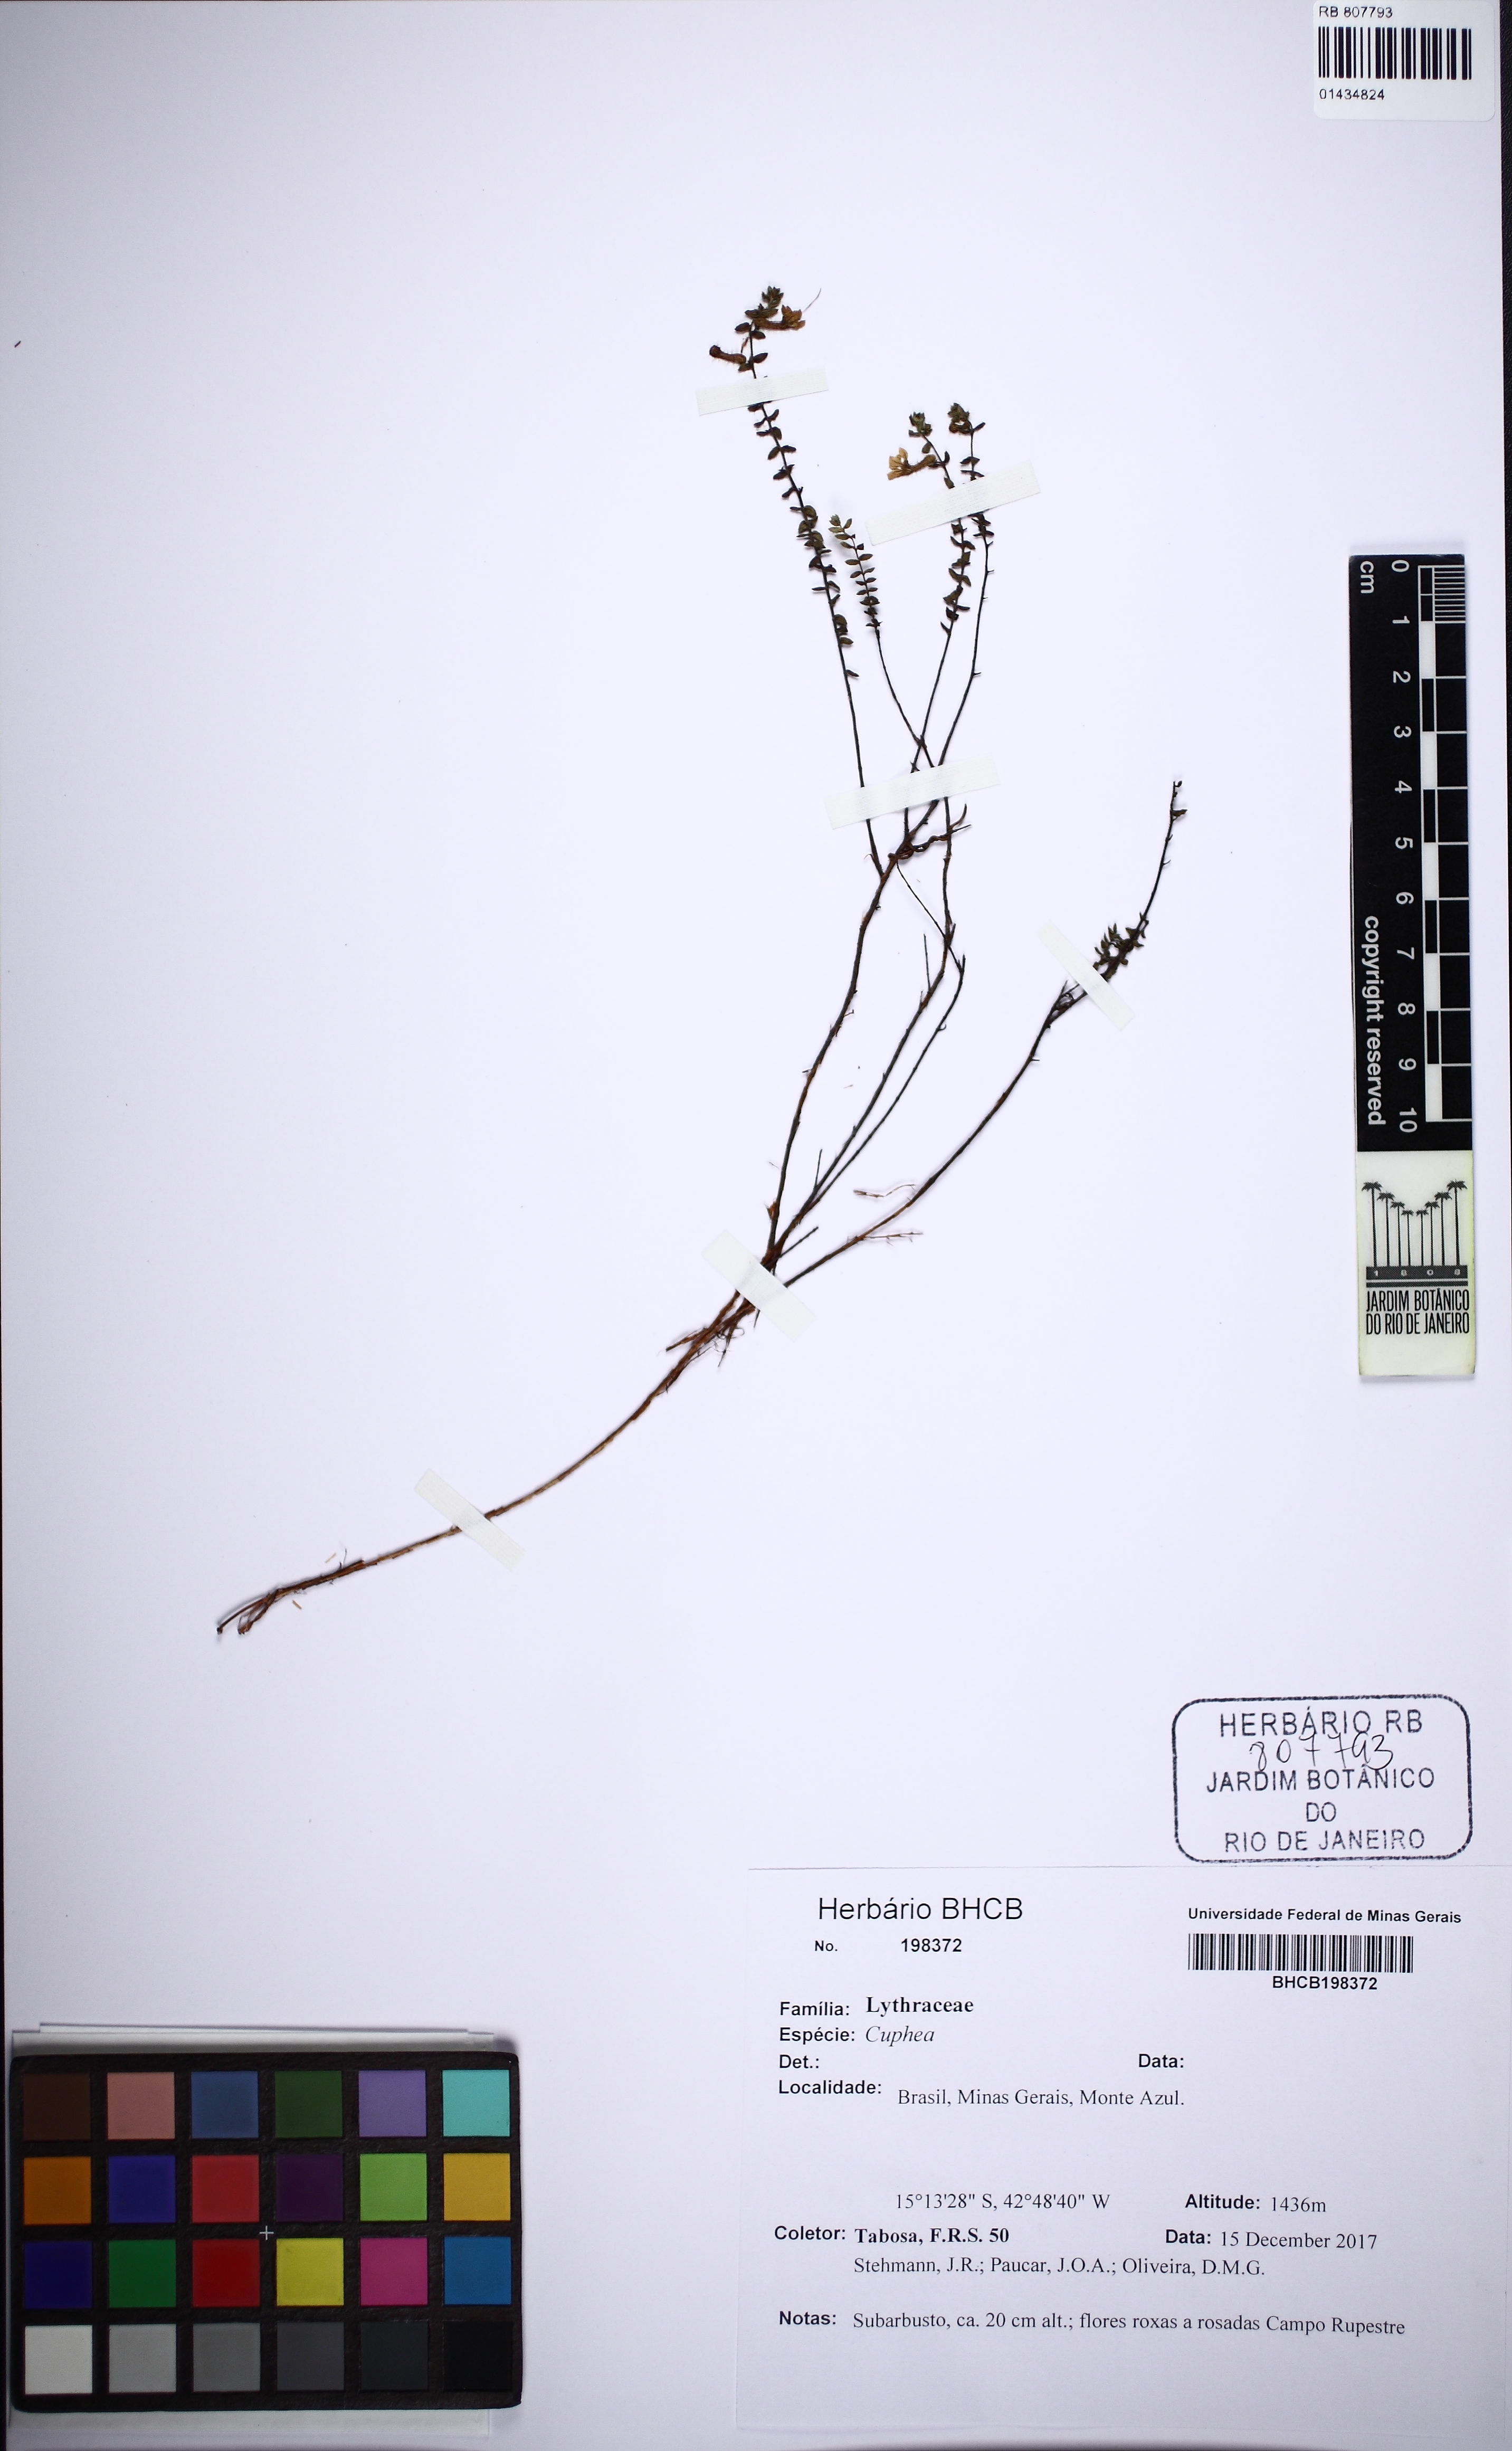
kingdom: Plantae
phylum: Tracheophyta
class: Magnoliopsida
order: Myrtales
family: Lythraceae
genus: Cuphea
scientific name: Cuphea
